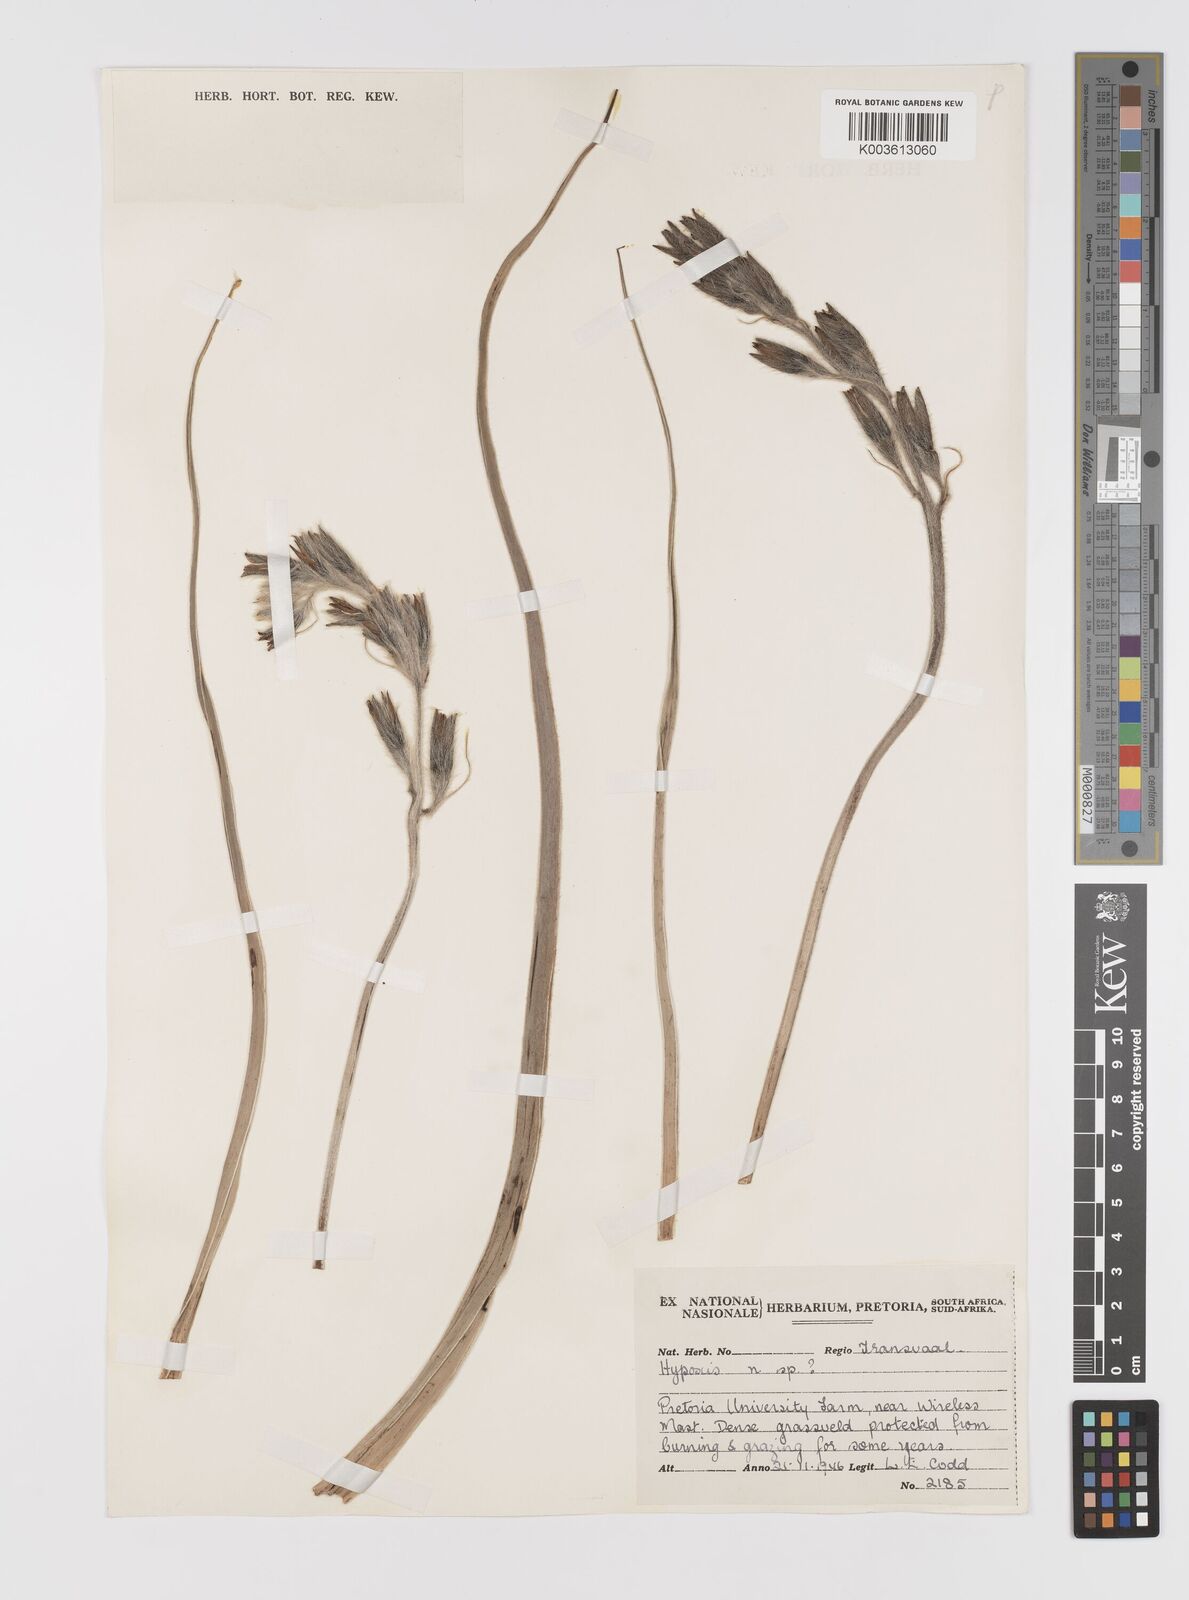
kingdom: Plantae
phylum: Tracheophyta
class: Liliopsida
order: Asparagales
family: Hypoxidaceae
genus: Hypoxis
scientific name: Hypoxis obtusa
